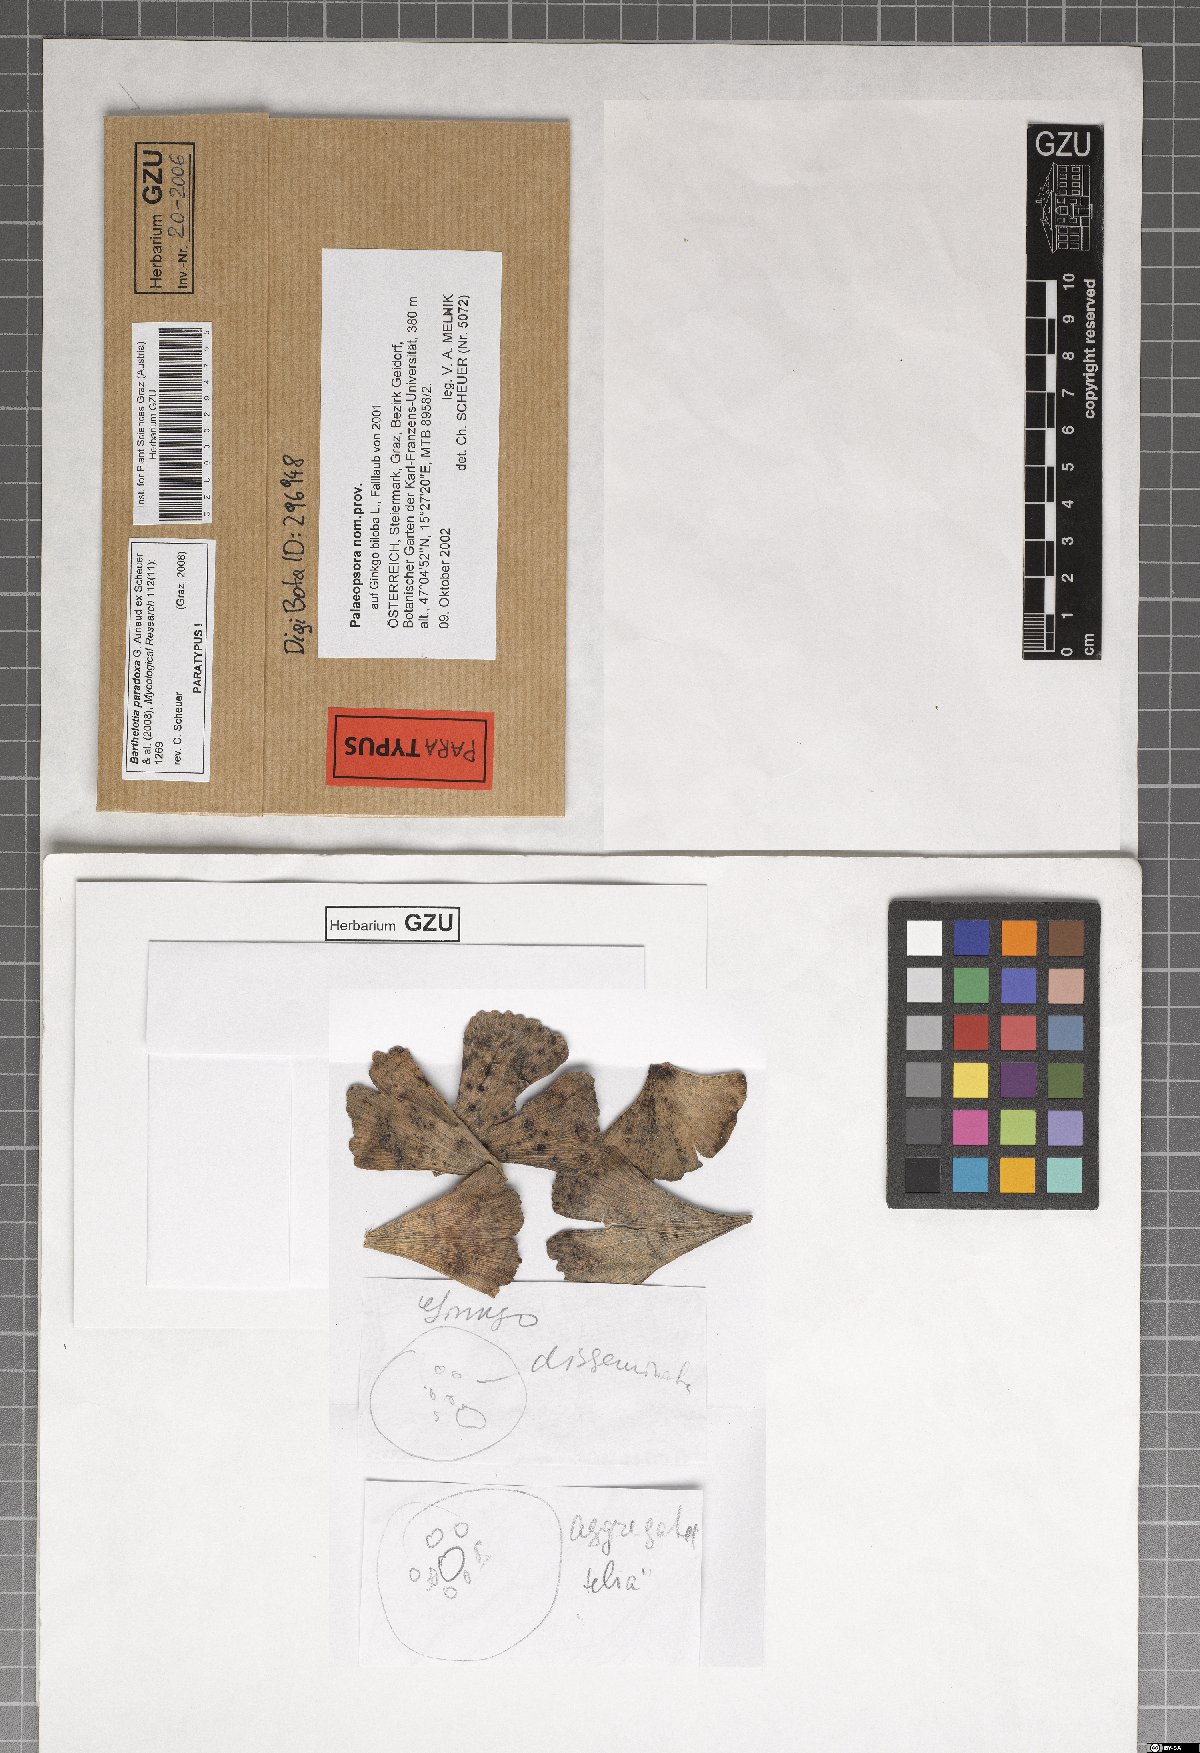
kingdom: Fungi
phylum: Basidiomycota
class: Wallemiomycetes
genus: Bartheletia
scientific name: Bartheletia paradoxa
